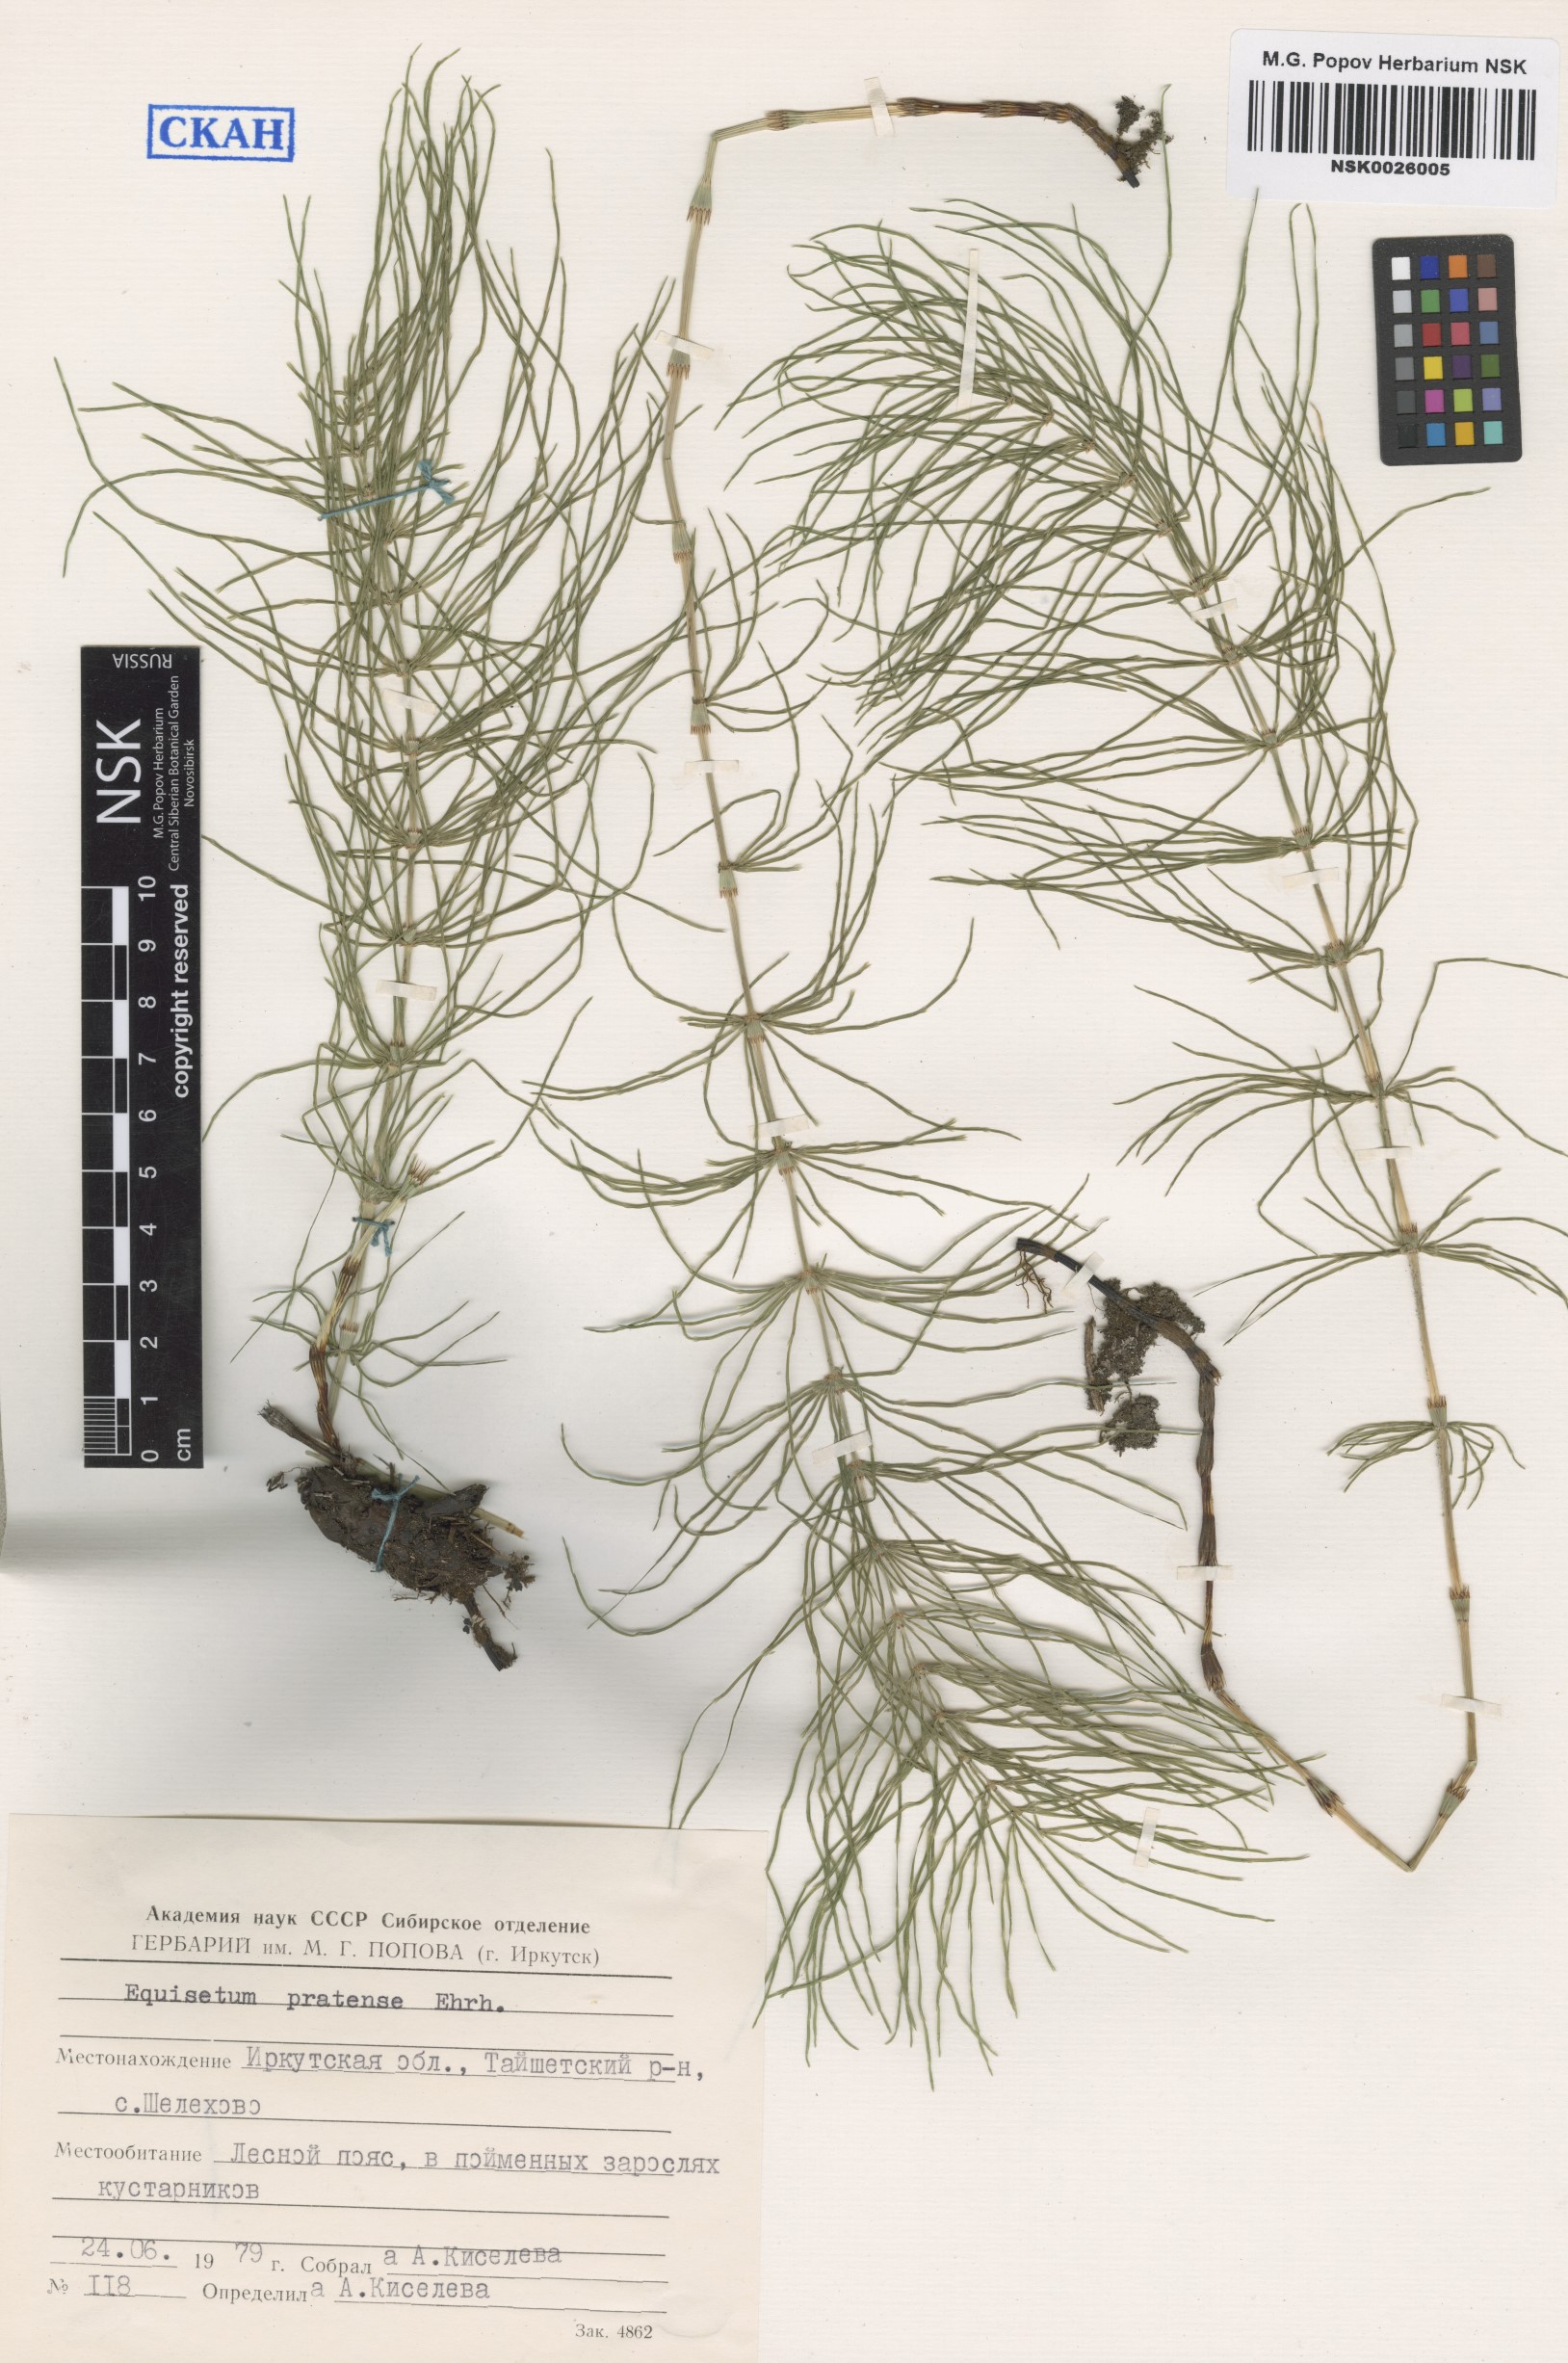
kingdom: Plantae
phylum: Tracheophyta
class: Polypodiopsida
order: Equisetales
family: Equisetaceae
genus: Equisetum
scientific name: Equisetum pratense
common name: Meadow horsetail
